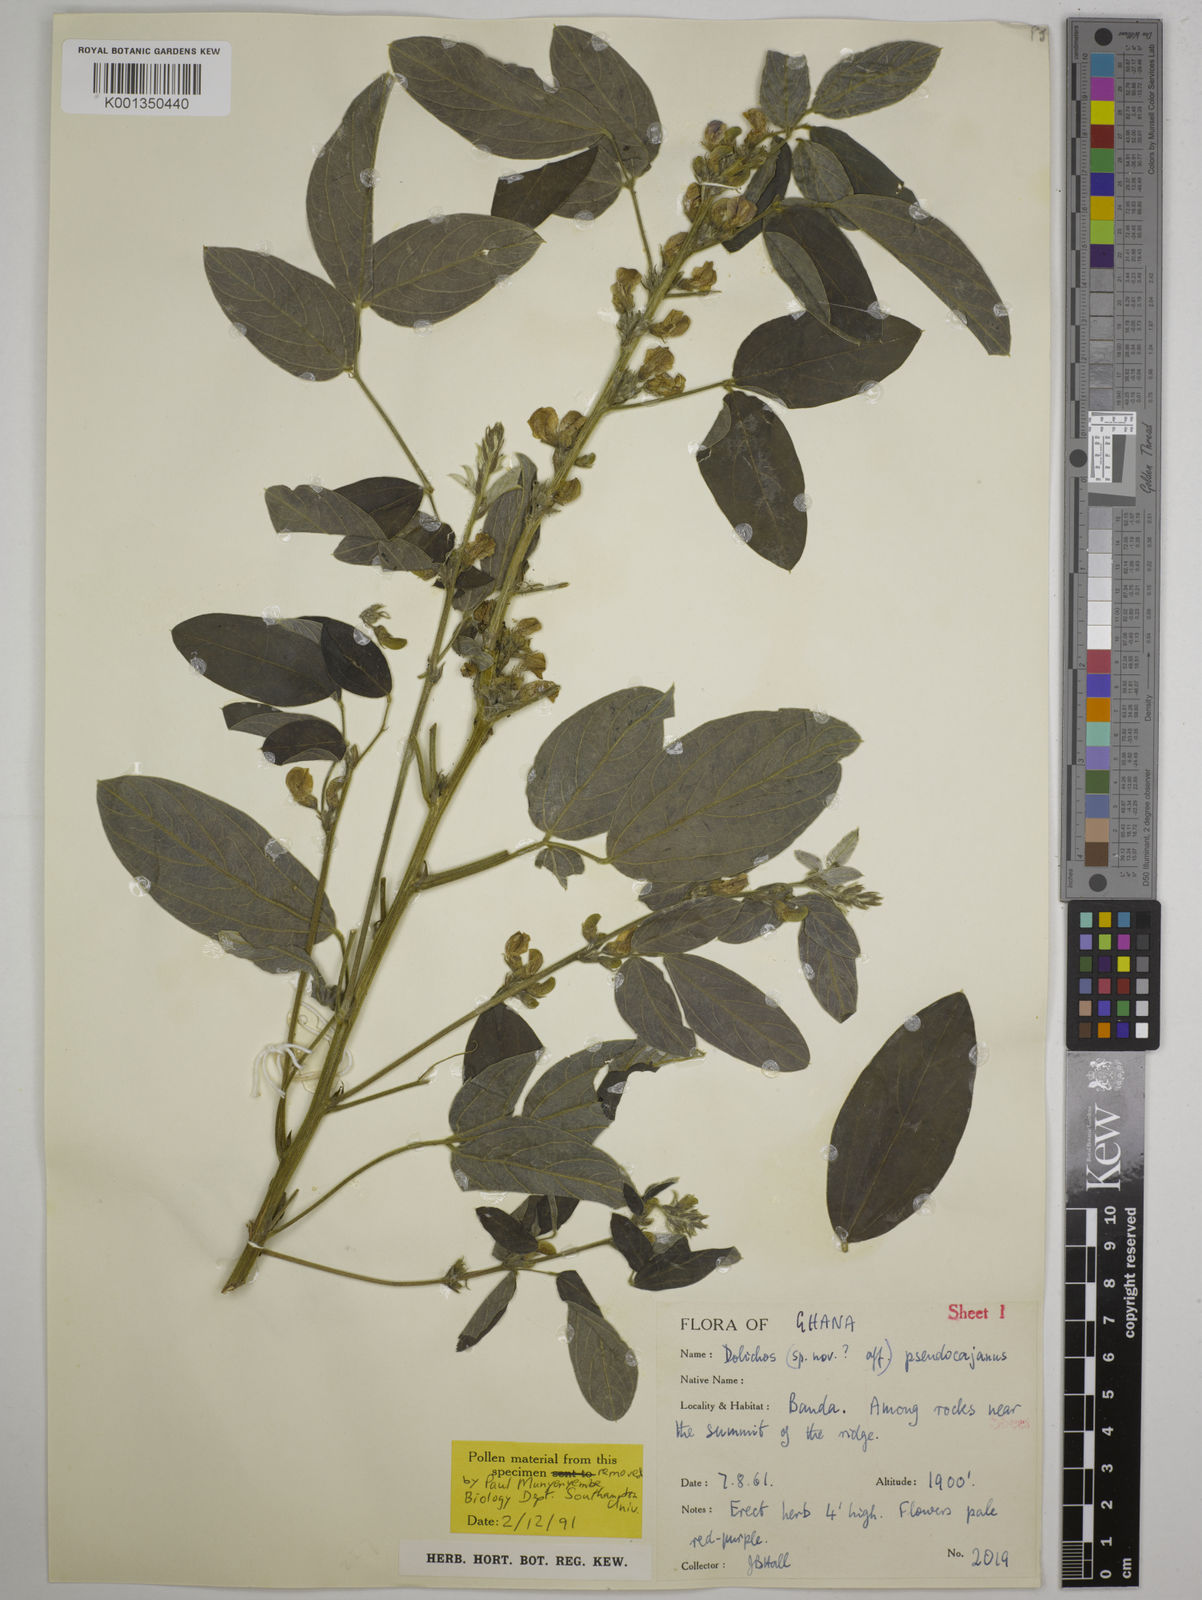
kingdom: Plantae
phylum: Tracheophyta
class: Magnoliopsida
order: Fabales
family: Fabaceae
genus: Dolichos
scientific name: Dolichos pseudocajanus
